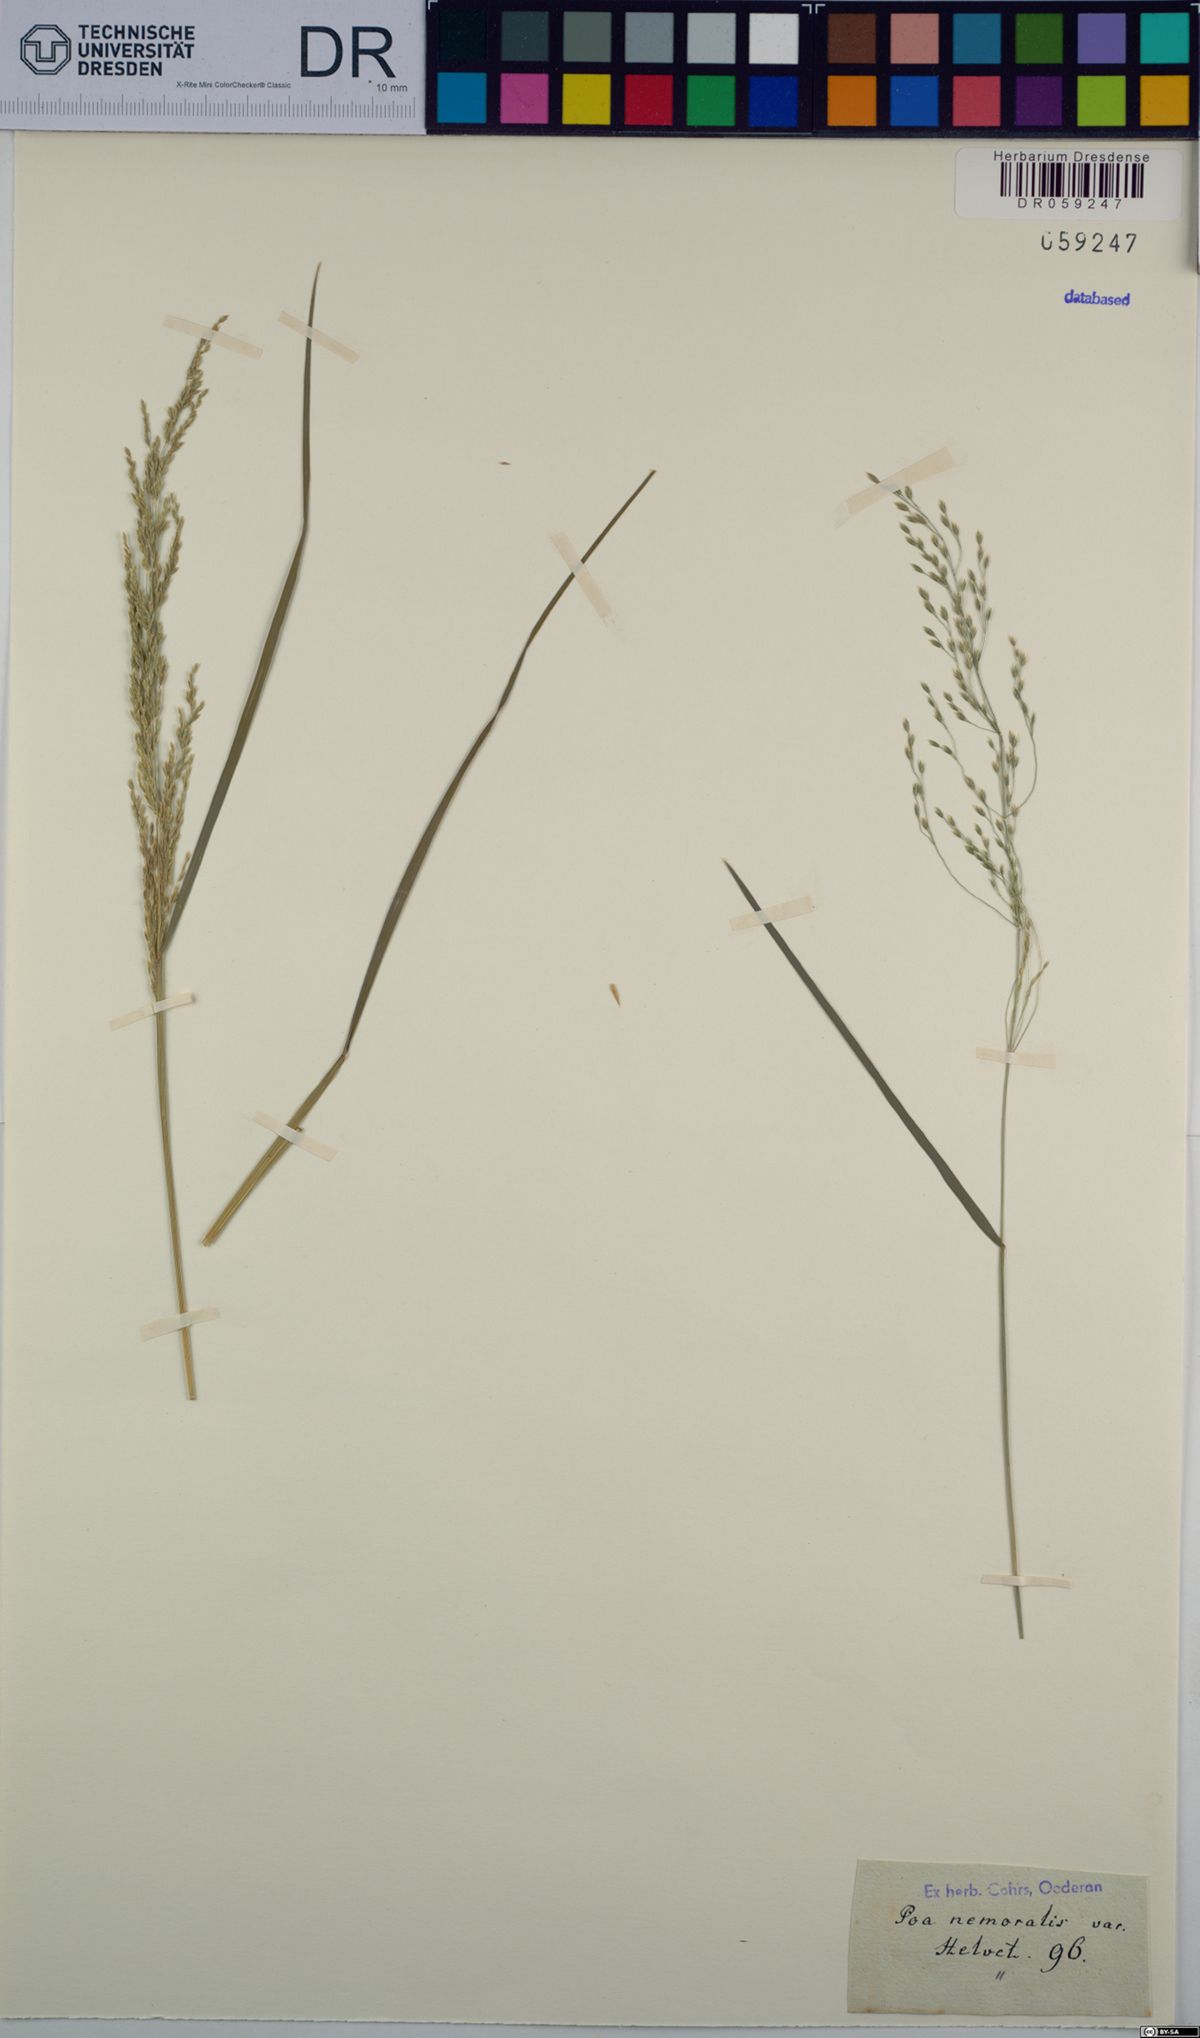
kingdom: Plantae
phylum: Tracheophyta
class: Liliopsida
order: Poales
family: Poaceae
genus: Poa
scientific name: Poa nemoralis
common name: Wood bluegrass
